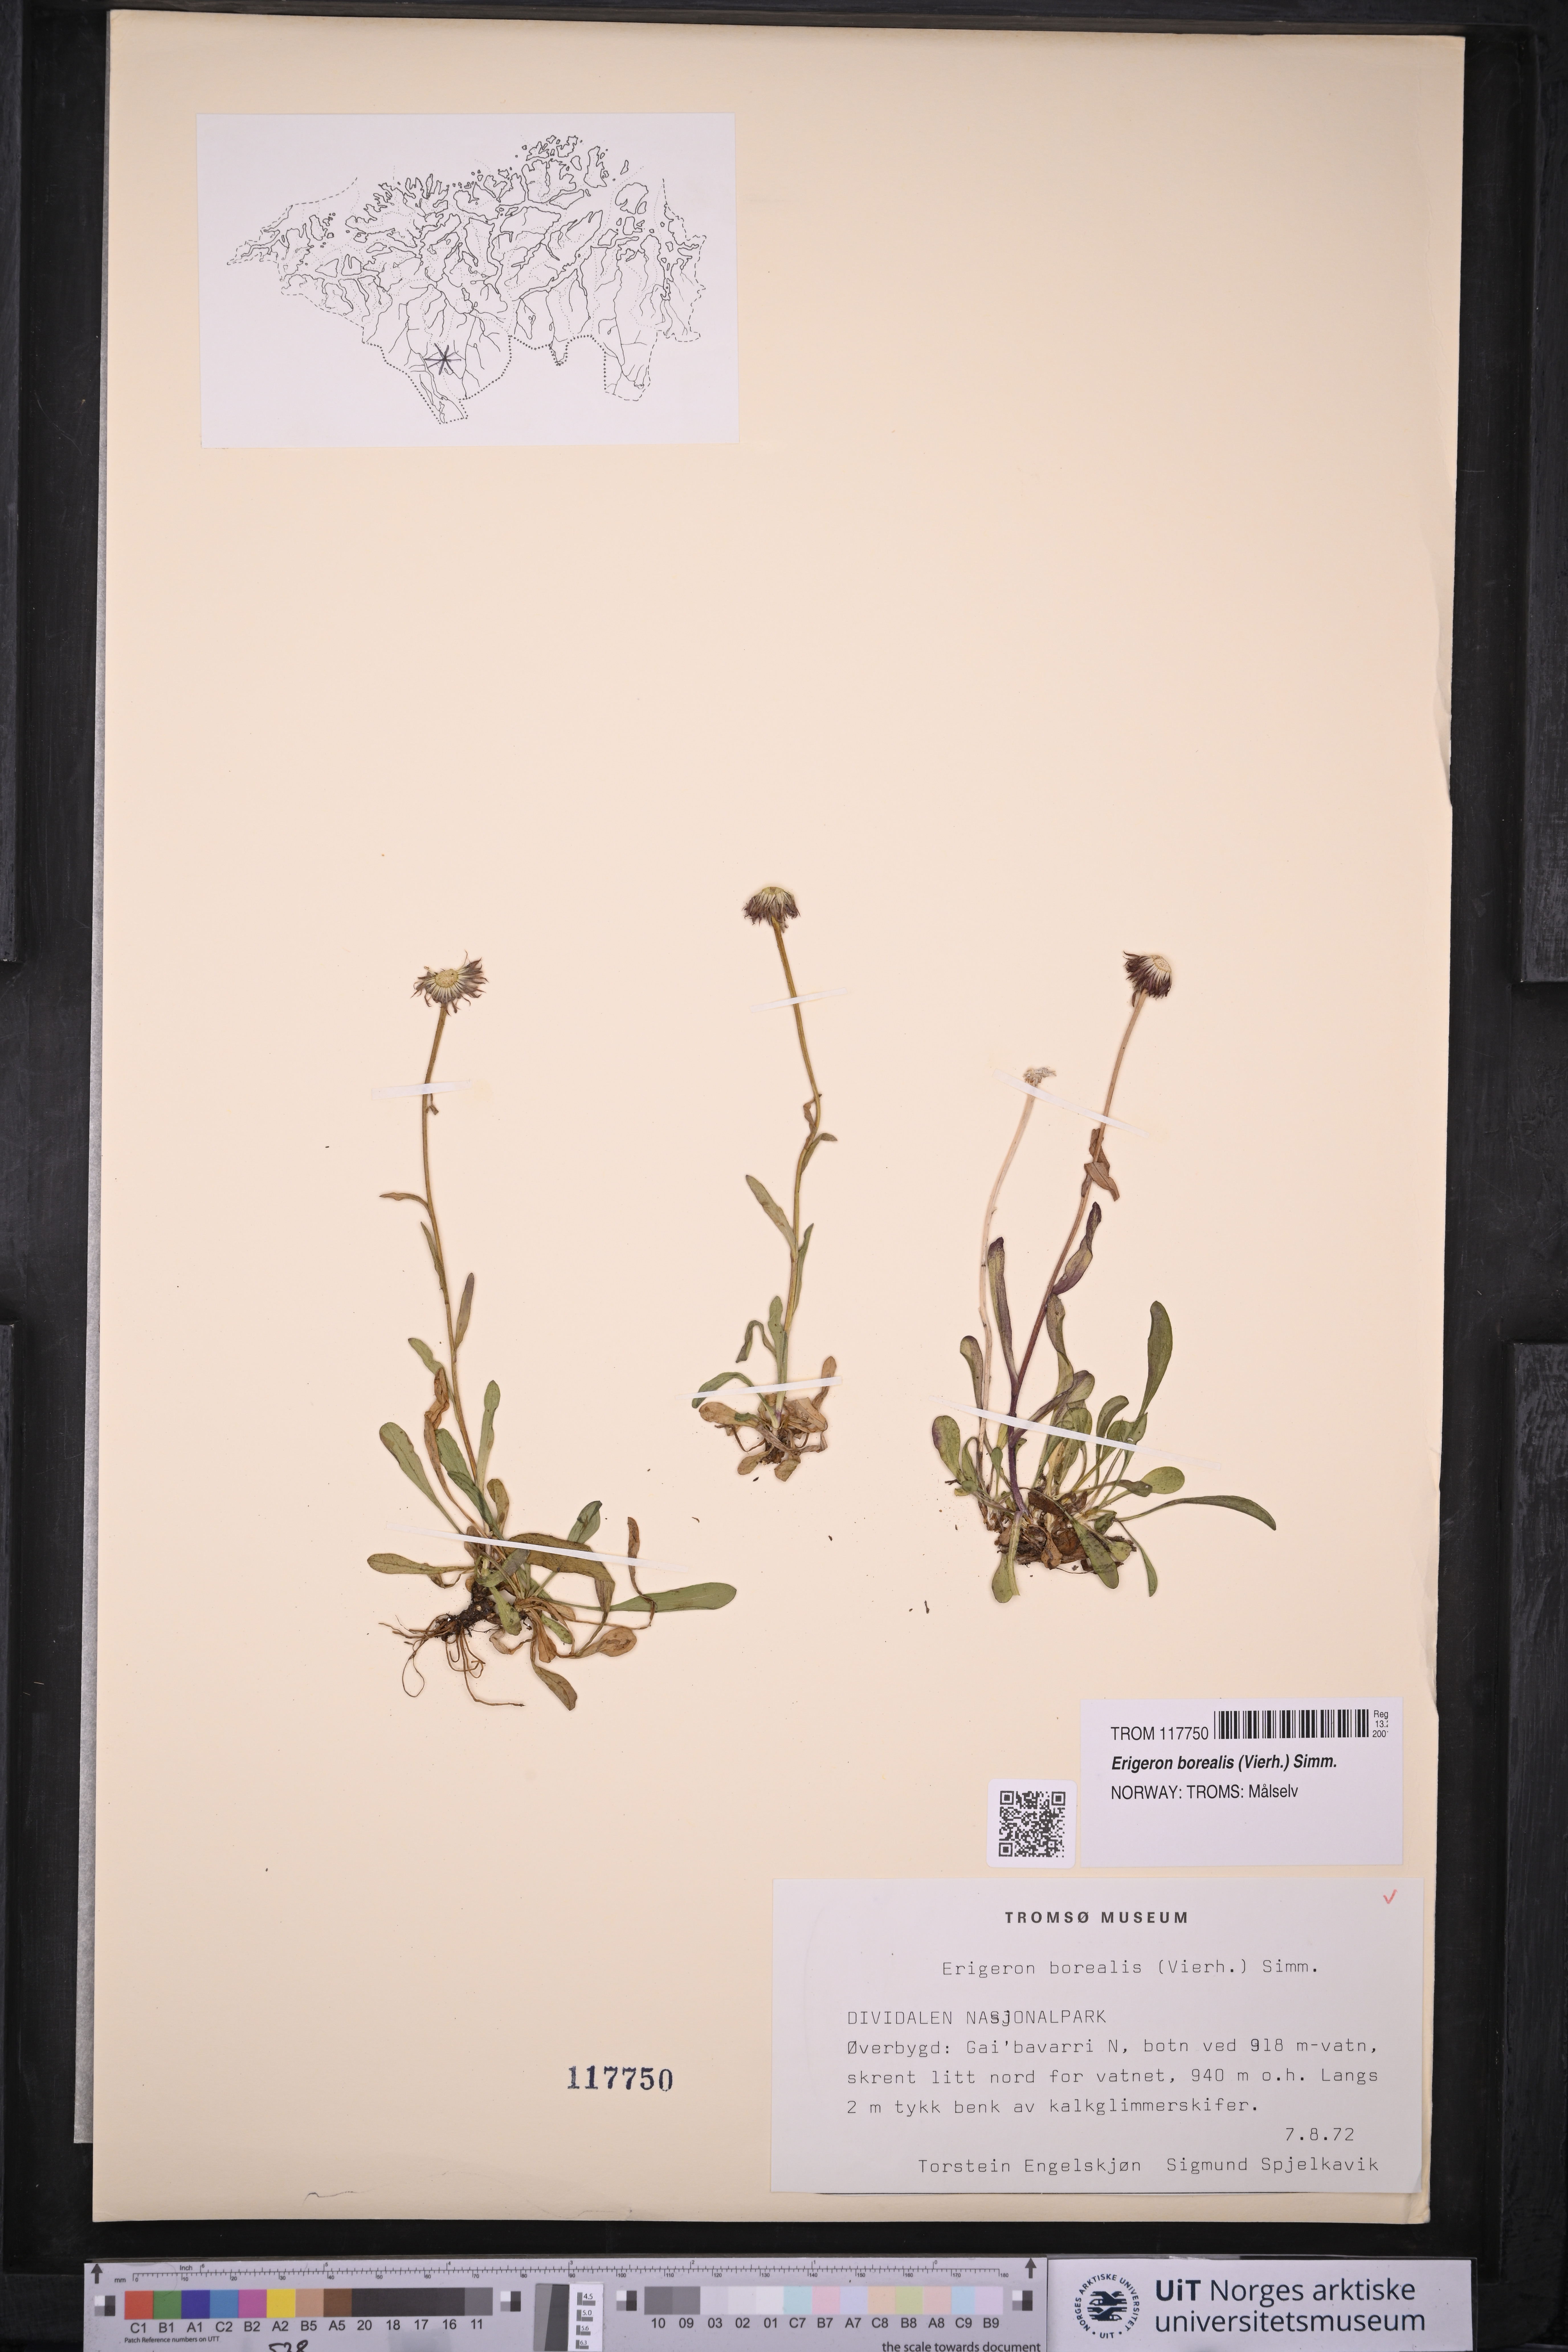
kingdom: Plantae
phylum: Tracheophyta
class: Magnoliopsida
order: Asterales
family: Asteraceae
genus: Erigeron
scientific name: Erigeron borealis
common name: Alpine fleabane
